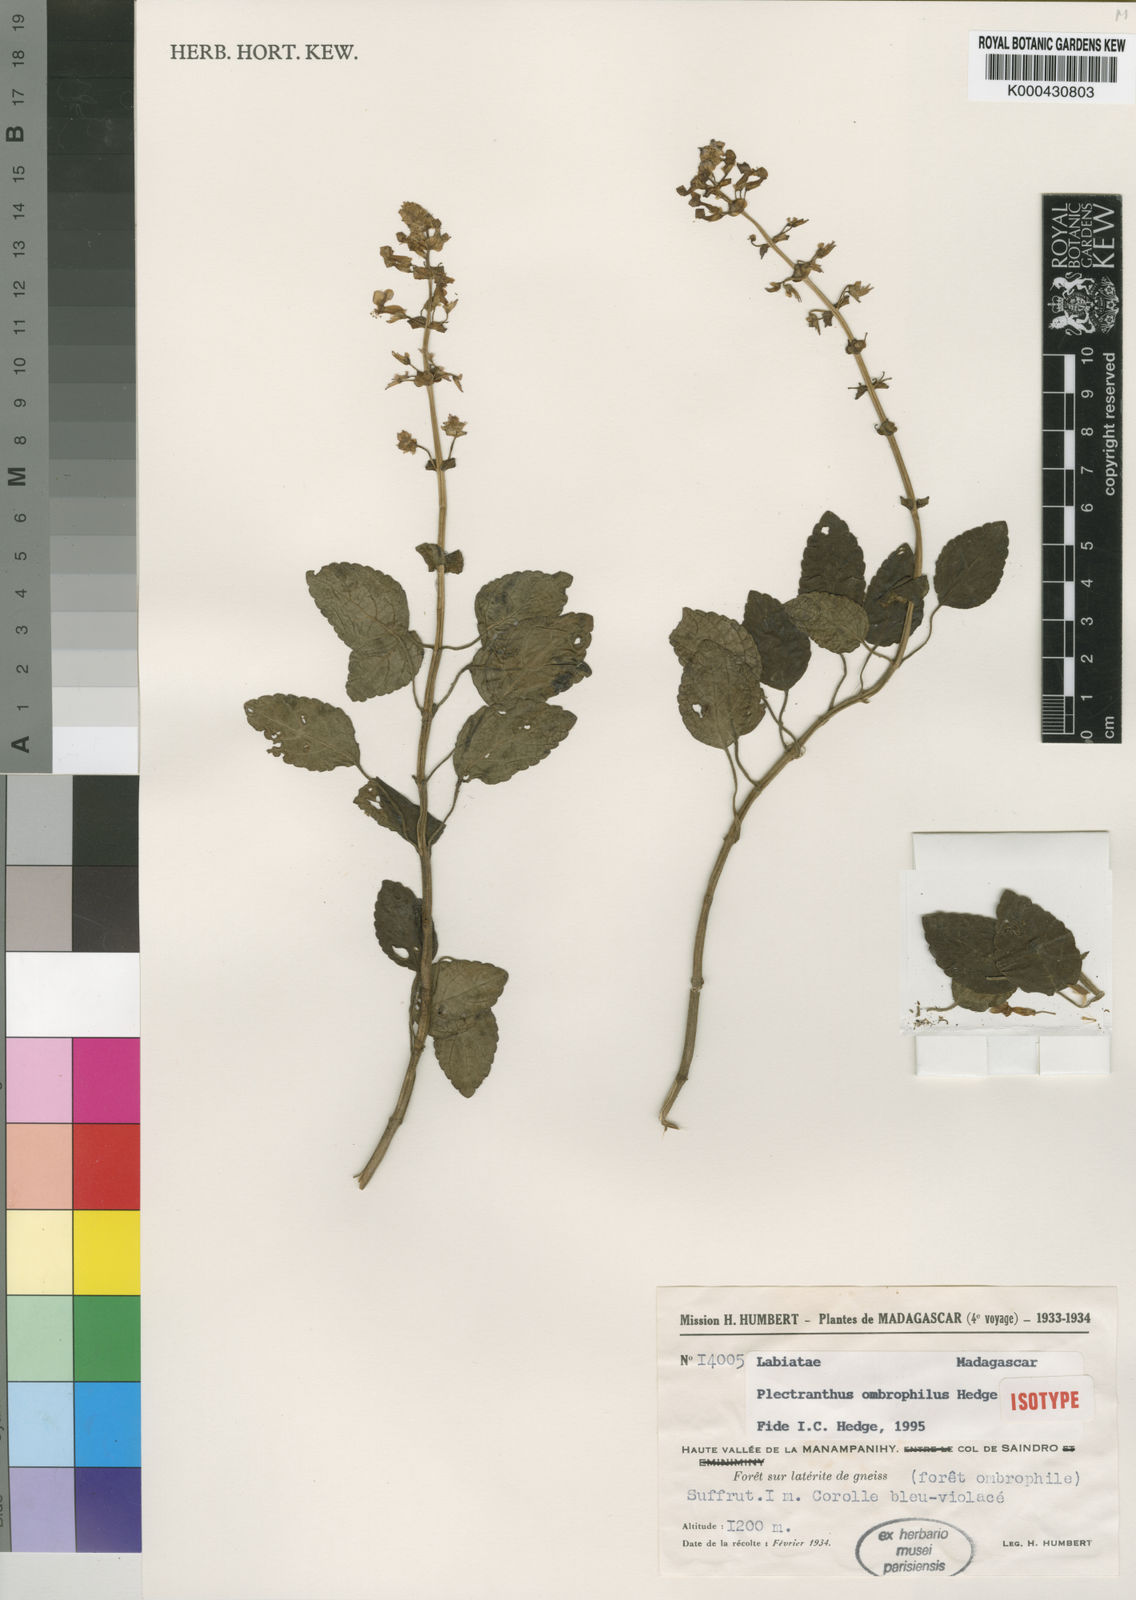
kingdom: Plantae
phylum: Tracheophyta
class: Magnoliopsida
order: Lamiales
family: Lamiaceae
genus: Plectranthus
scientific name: Plectranthus ombrophilus
